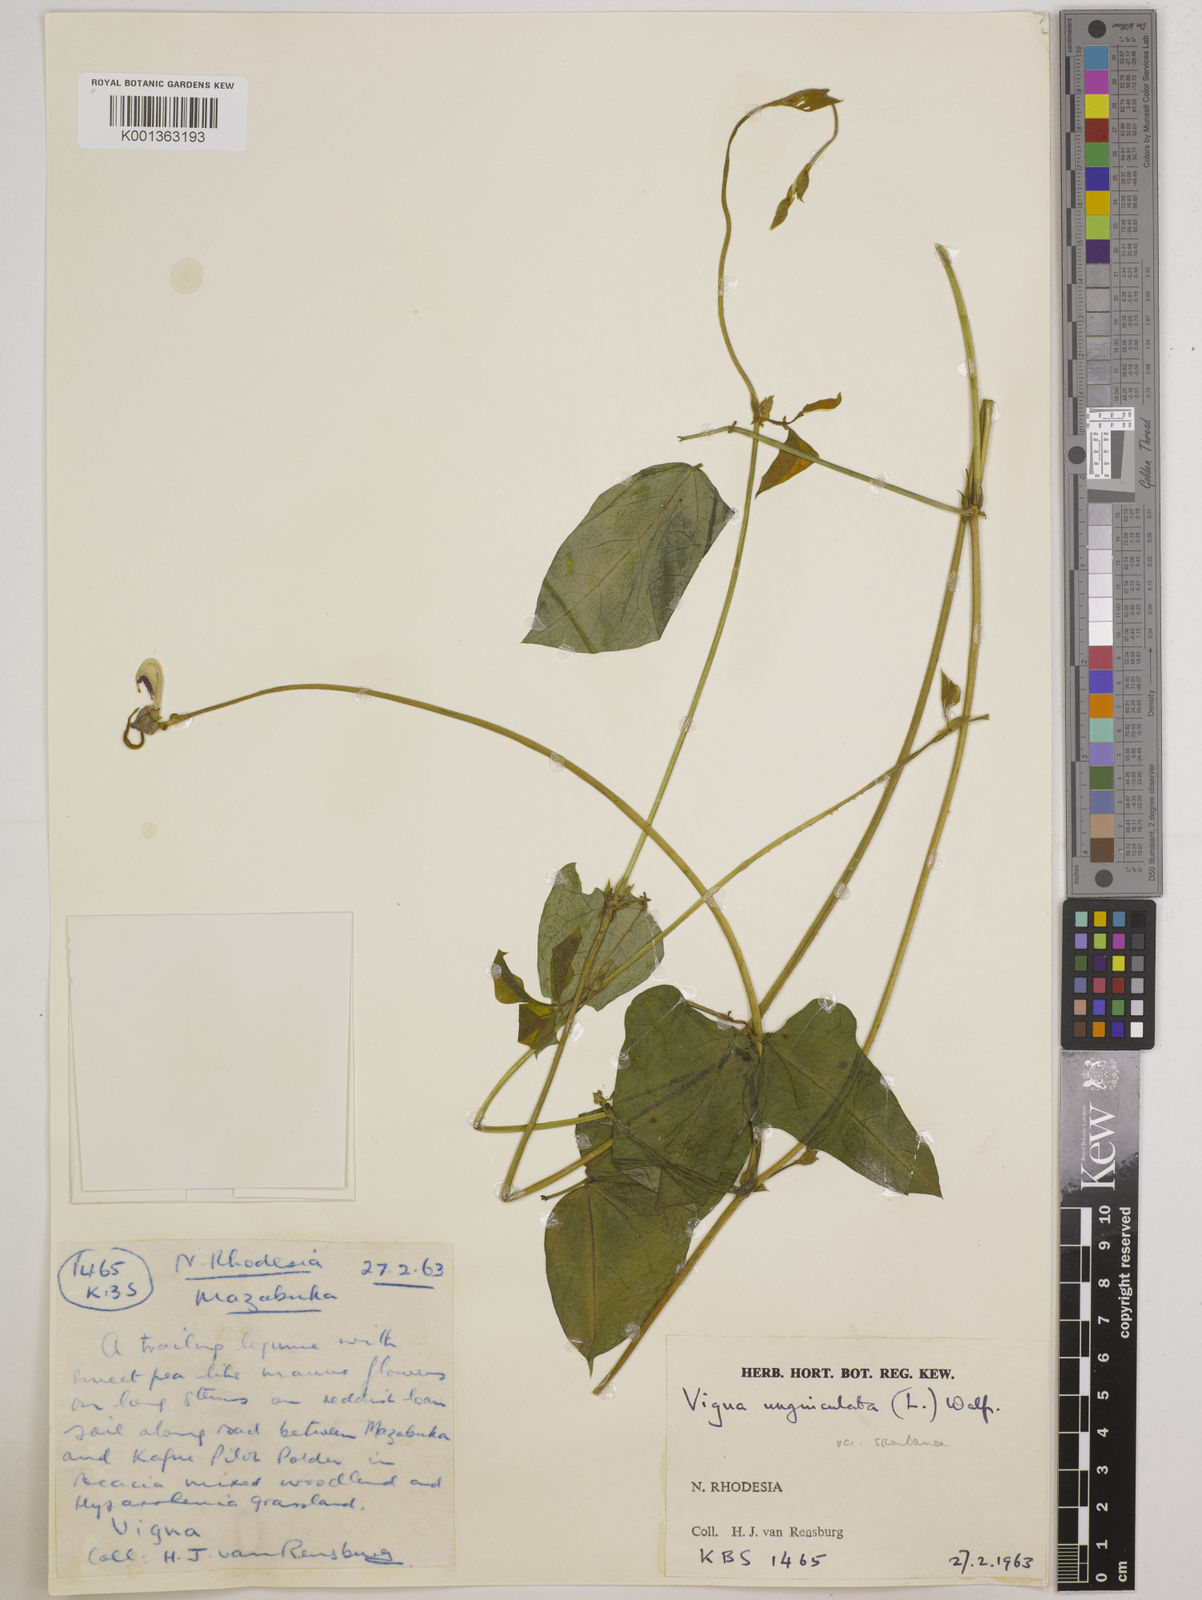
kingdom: Plantae
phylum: Tracheophyta
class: Magnoliopsida
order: Fabales
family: Fabaceae
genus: Vigna
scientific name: Vigna unguiculata
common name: Cowpea
